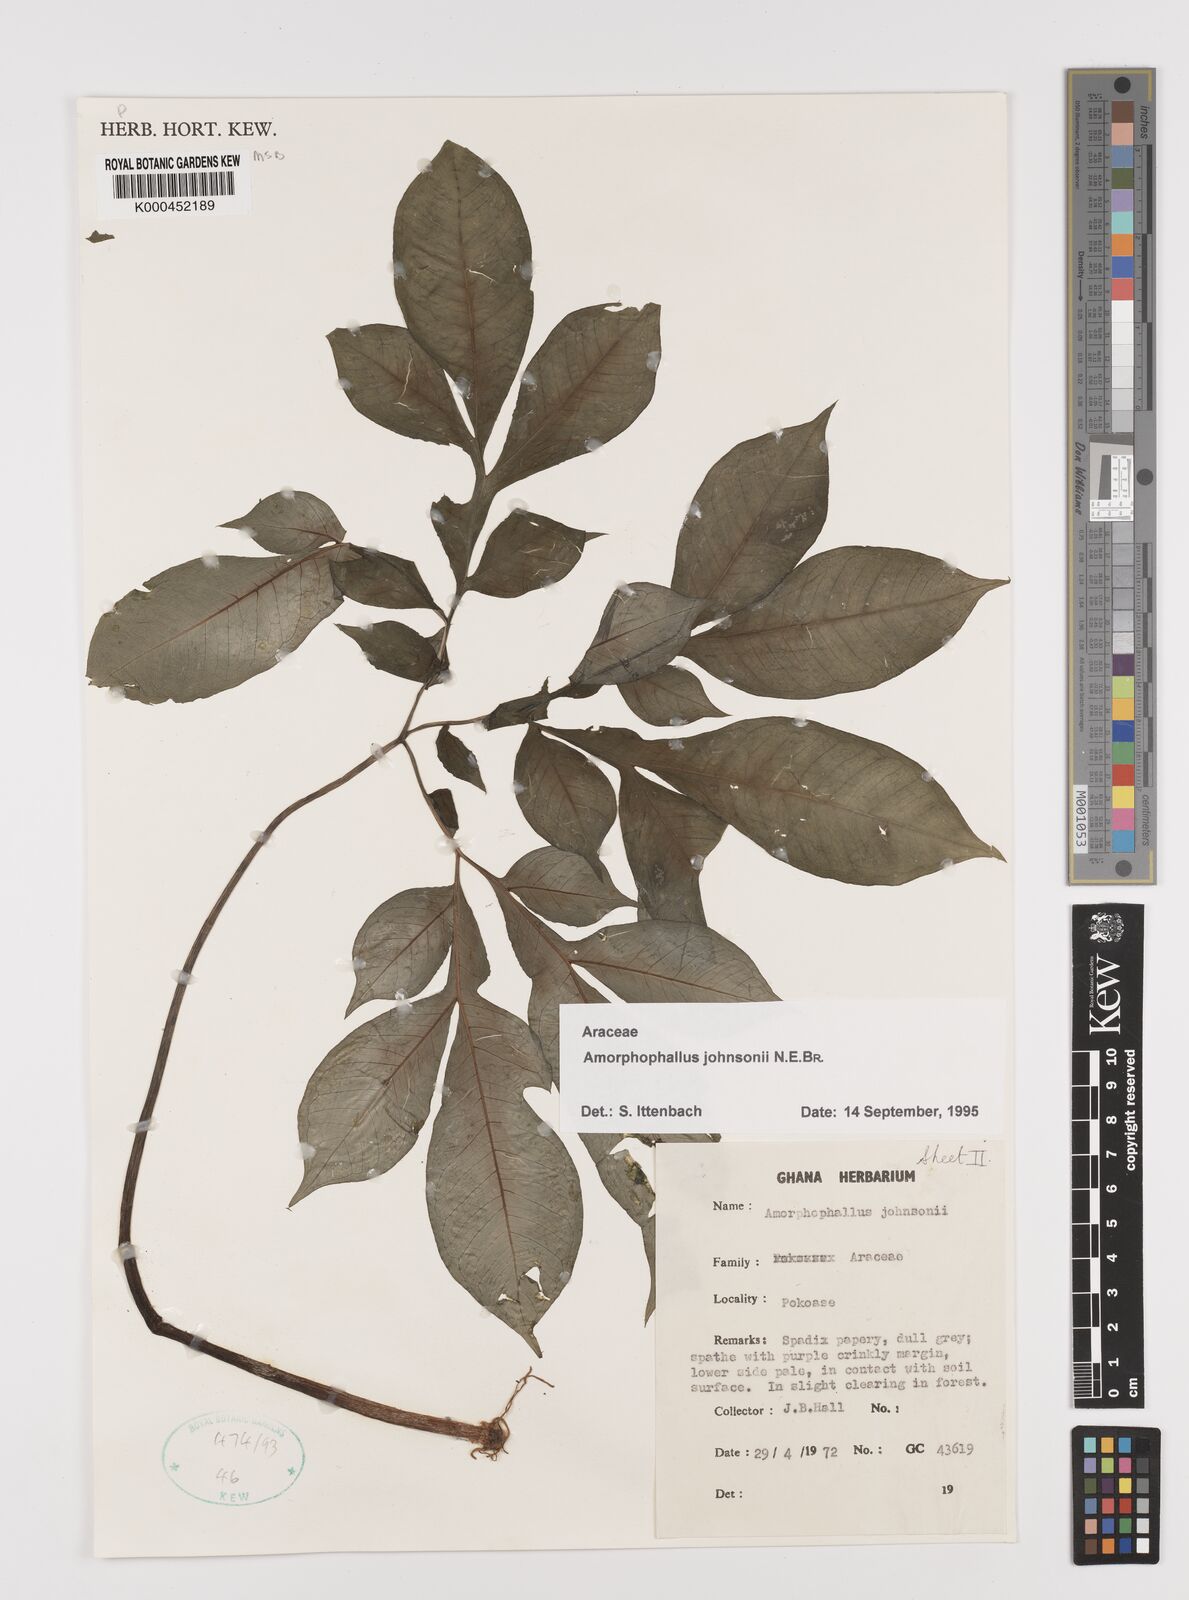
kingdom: Plantae
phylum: Tracheophyta
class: Liliopsida
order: Alismatales
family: Araceae
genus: Amorphophallus
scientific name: Amorphophallus johnsonii
